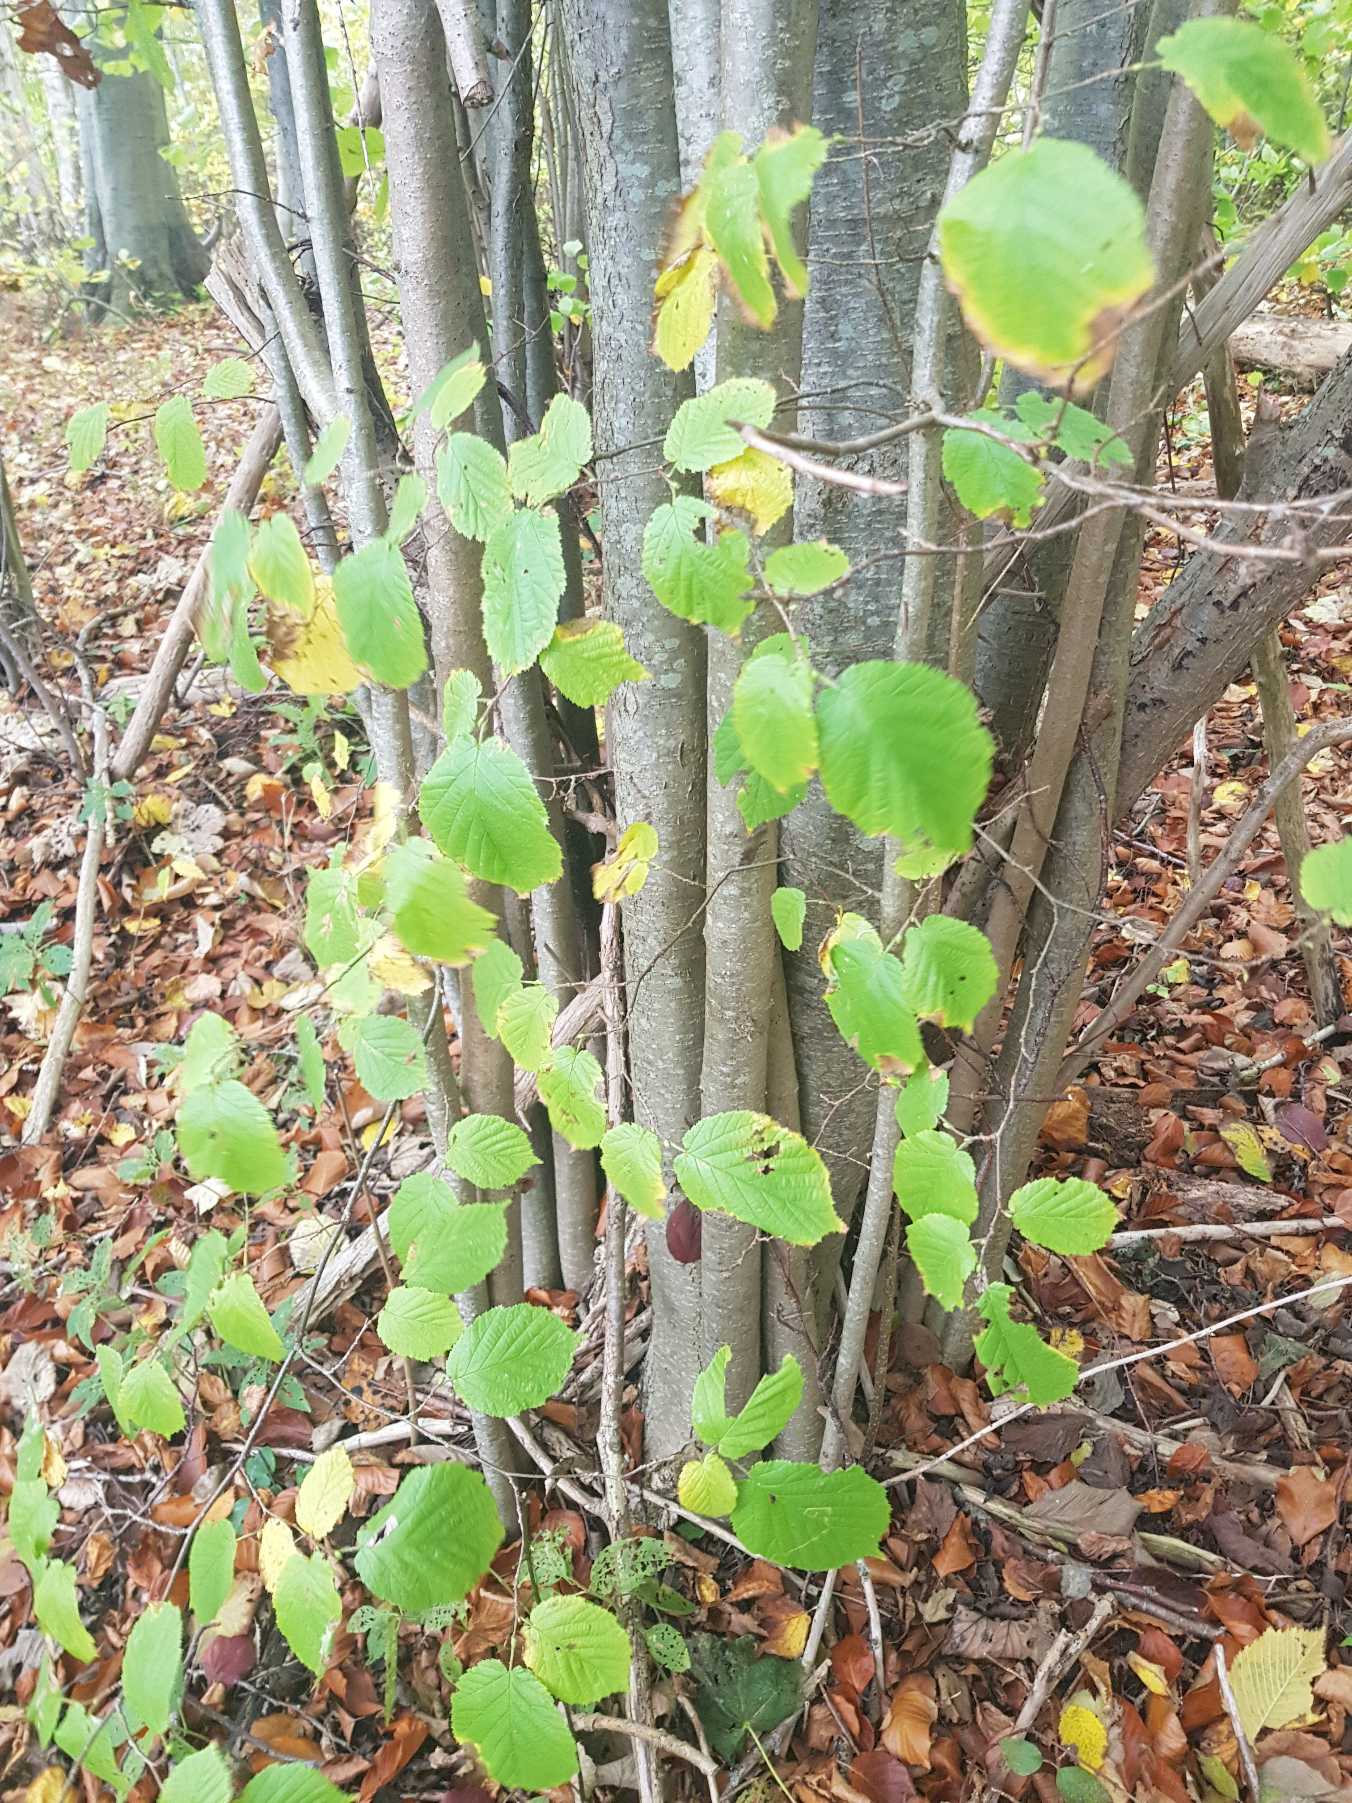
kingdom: Plantae
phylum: Tracheophyta
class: Magnoliopsida
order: Fagales
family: Betulaceae
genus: Corylus
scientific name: Corylus avellana
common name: Hassel
